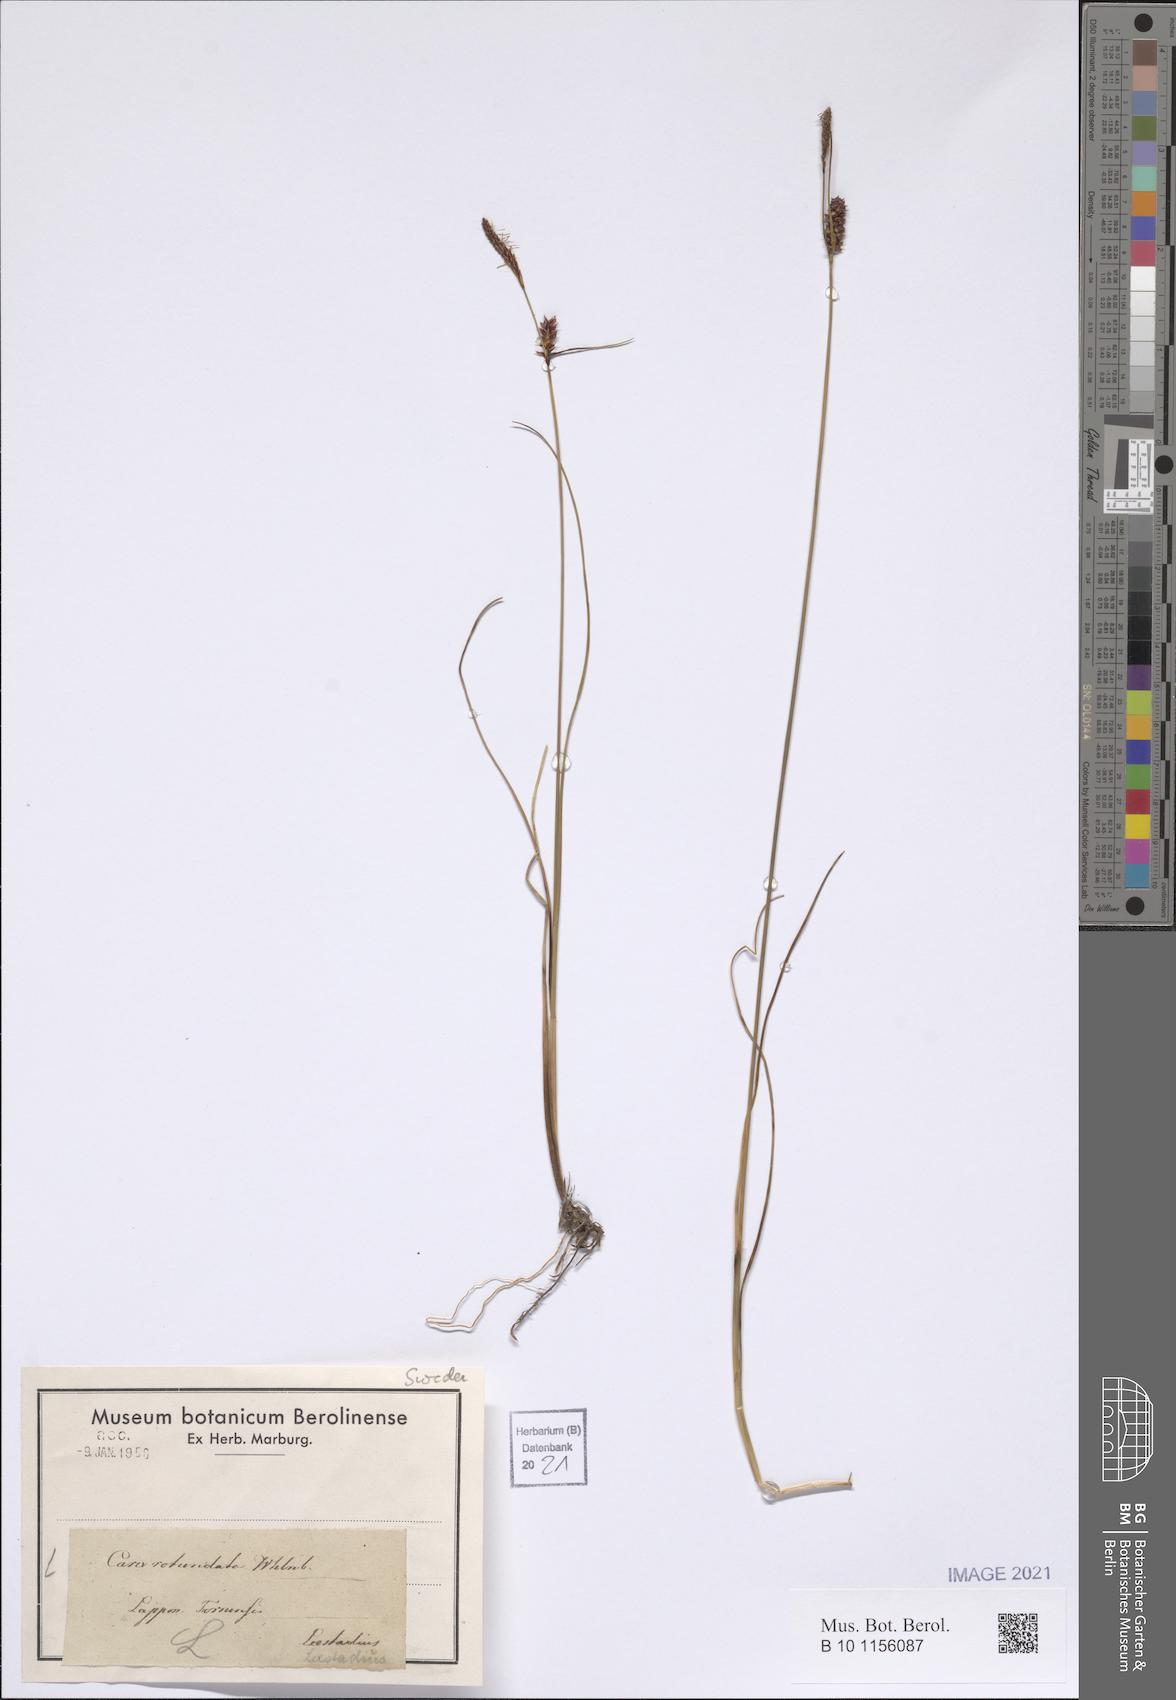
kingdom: Plantae
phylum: Tracheophyta
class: Liliopsida
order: Poales
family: Cyperaceae
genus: Carex
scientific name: Carex rotundata
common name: Round-fruited sedge
